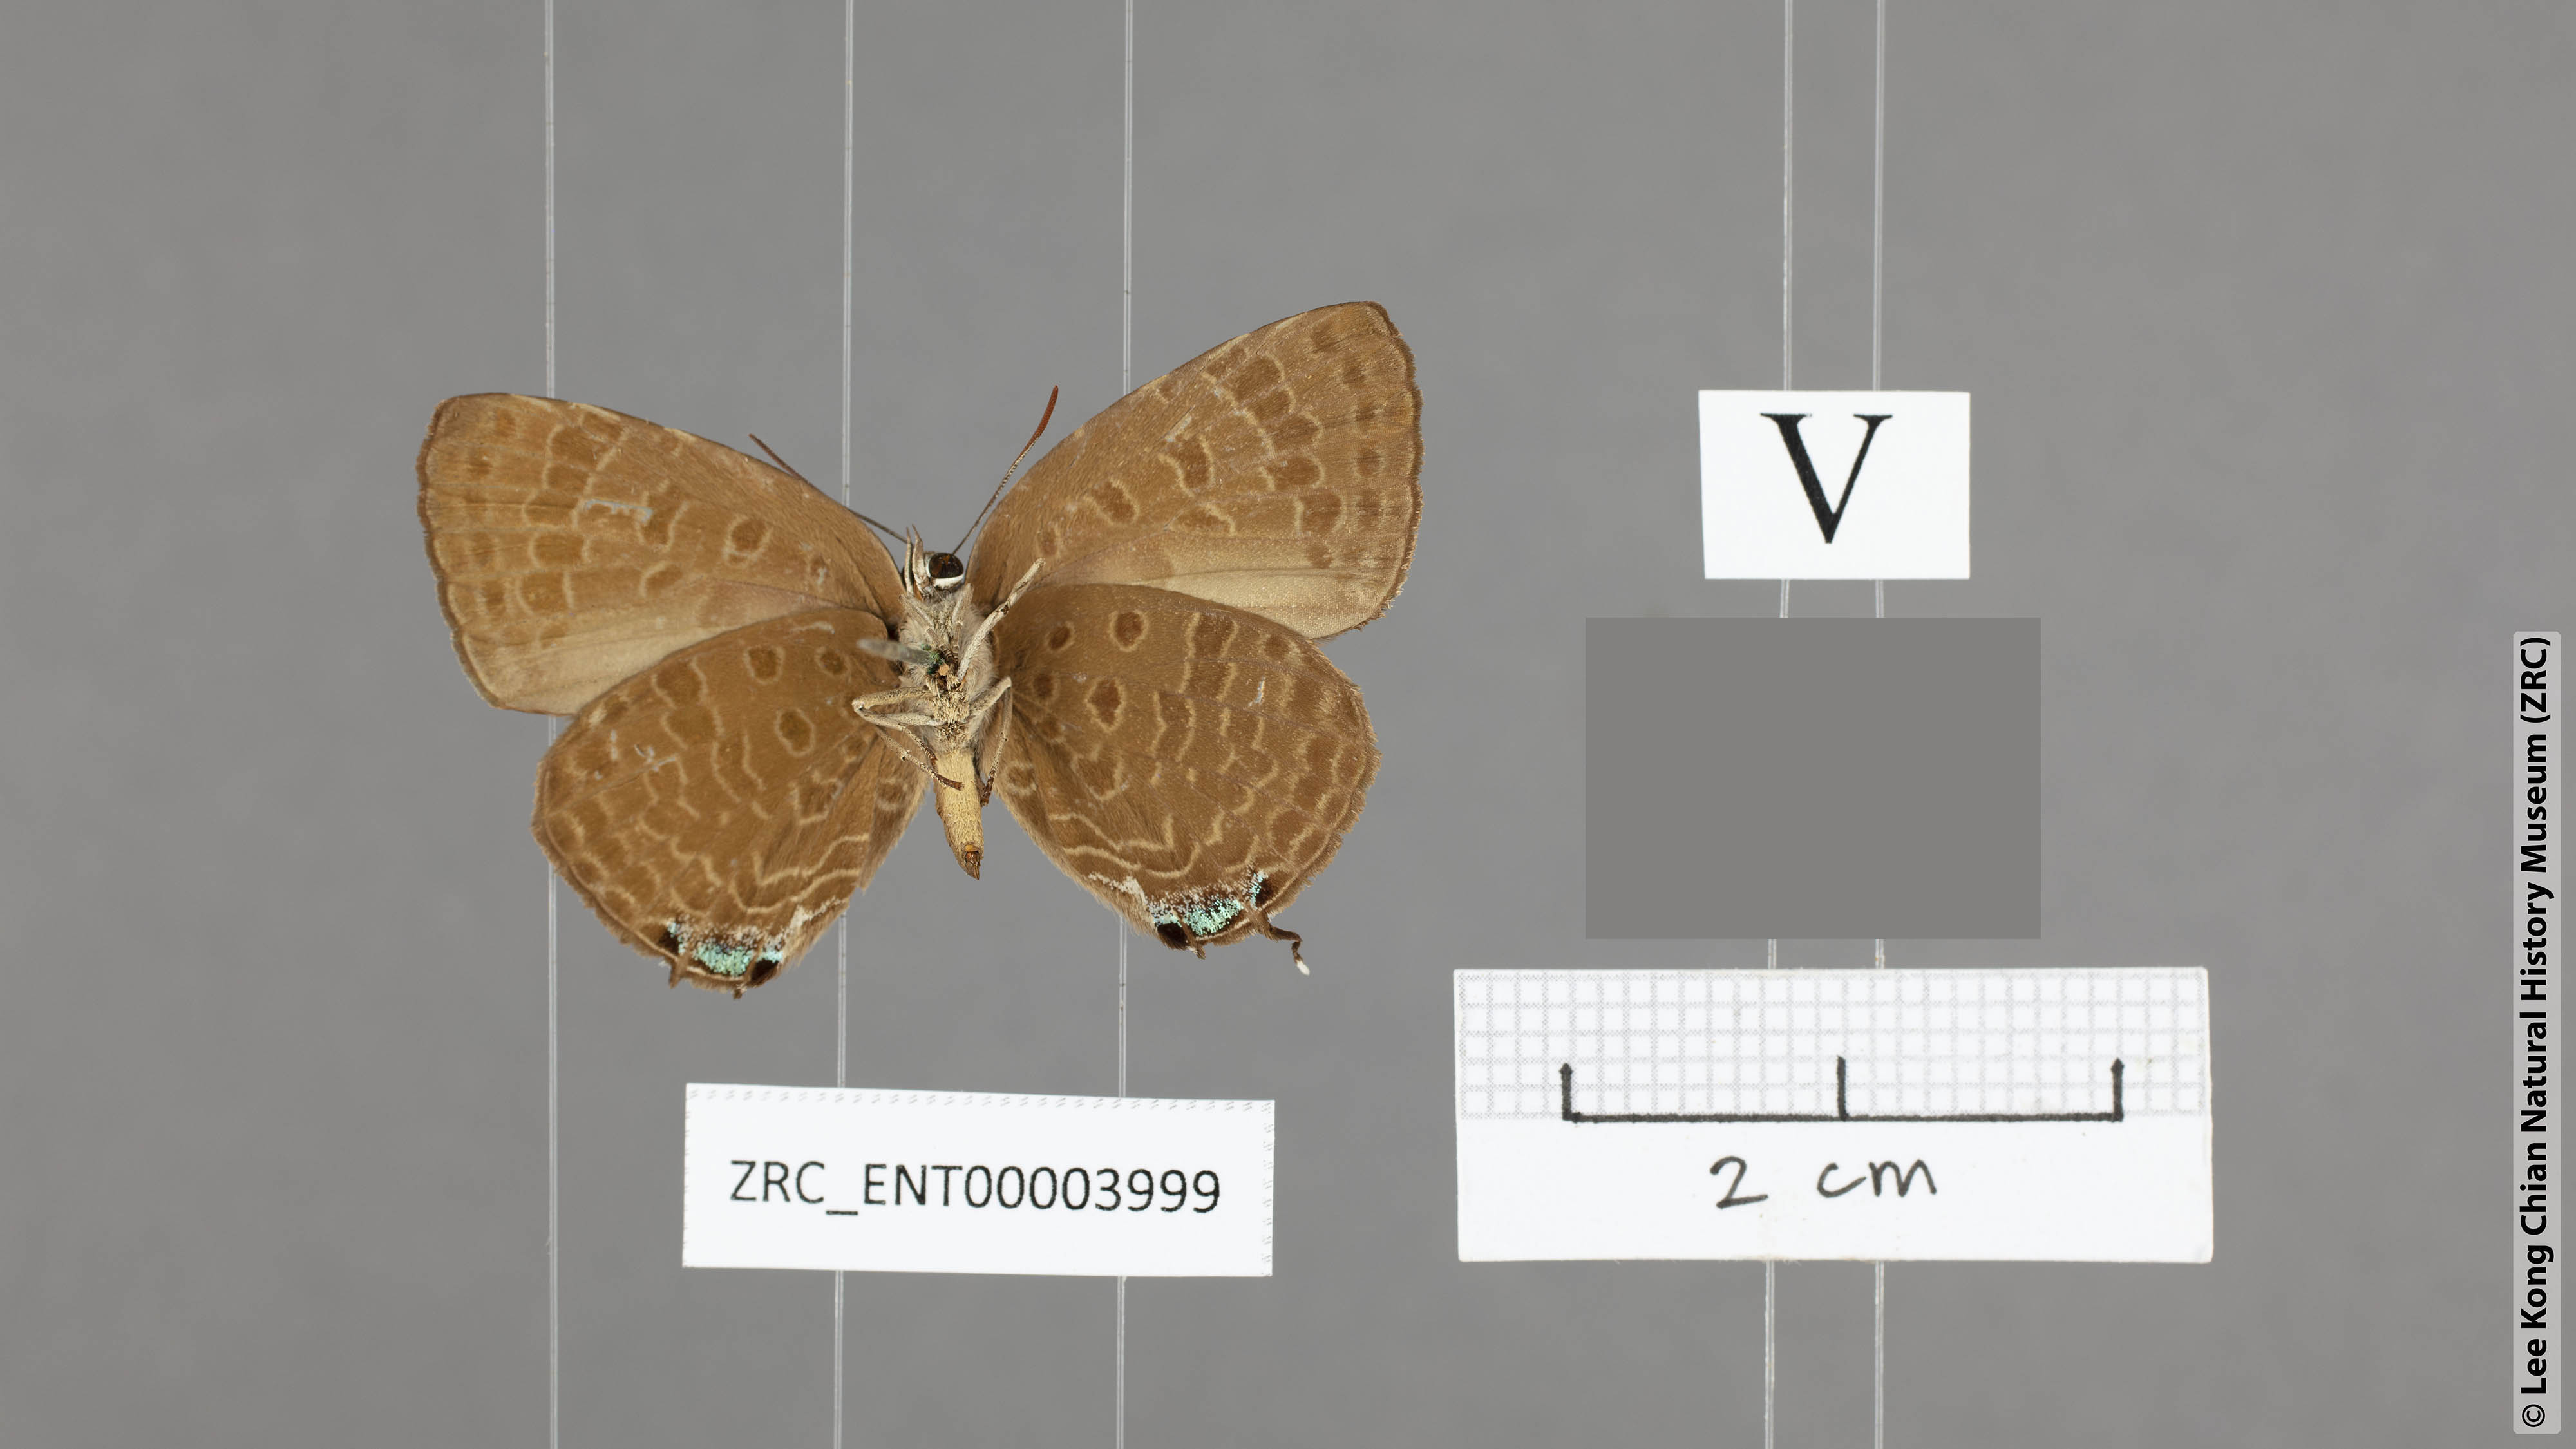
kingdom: Animalia
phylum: Arthropoda
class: Insecta
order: Lepidoptera
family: Lycaenidae
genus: Arhopala
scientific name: Arhopala milleri
